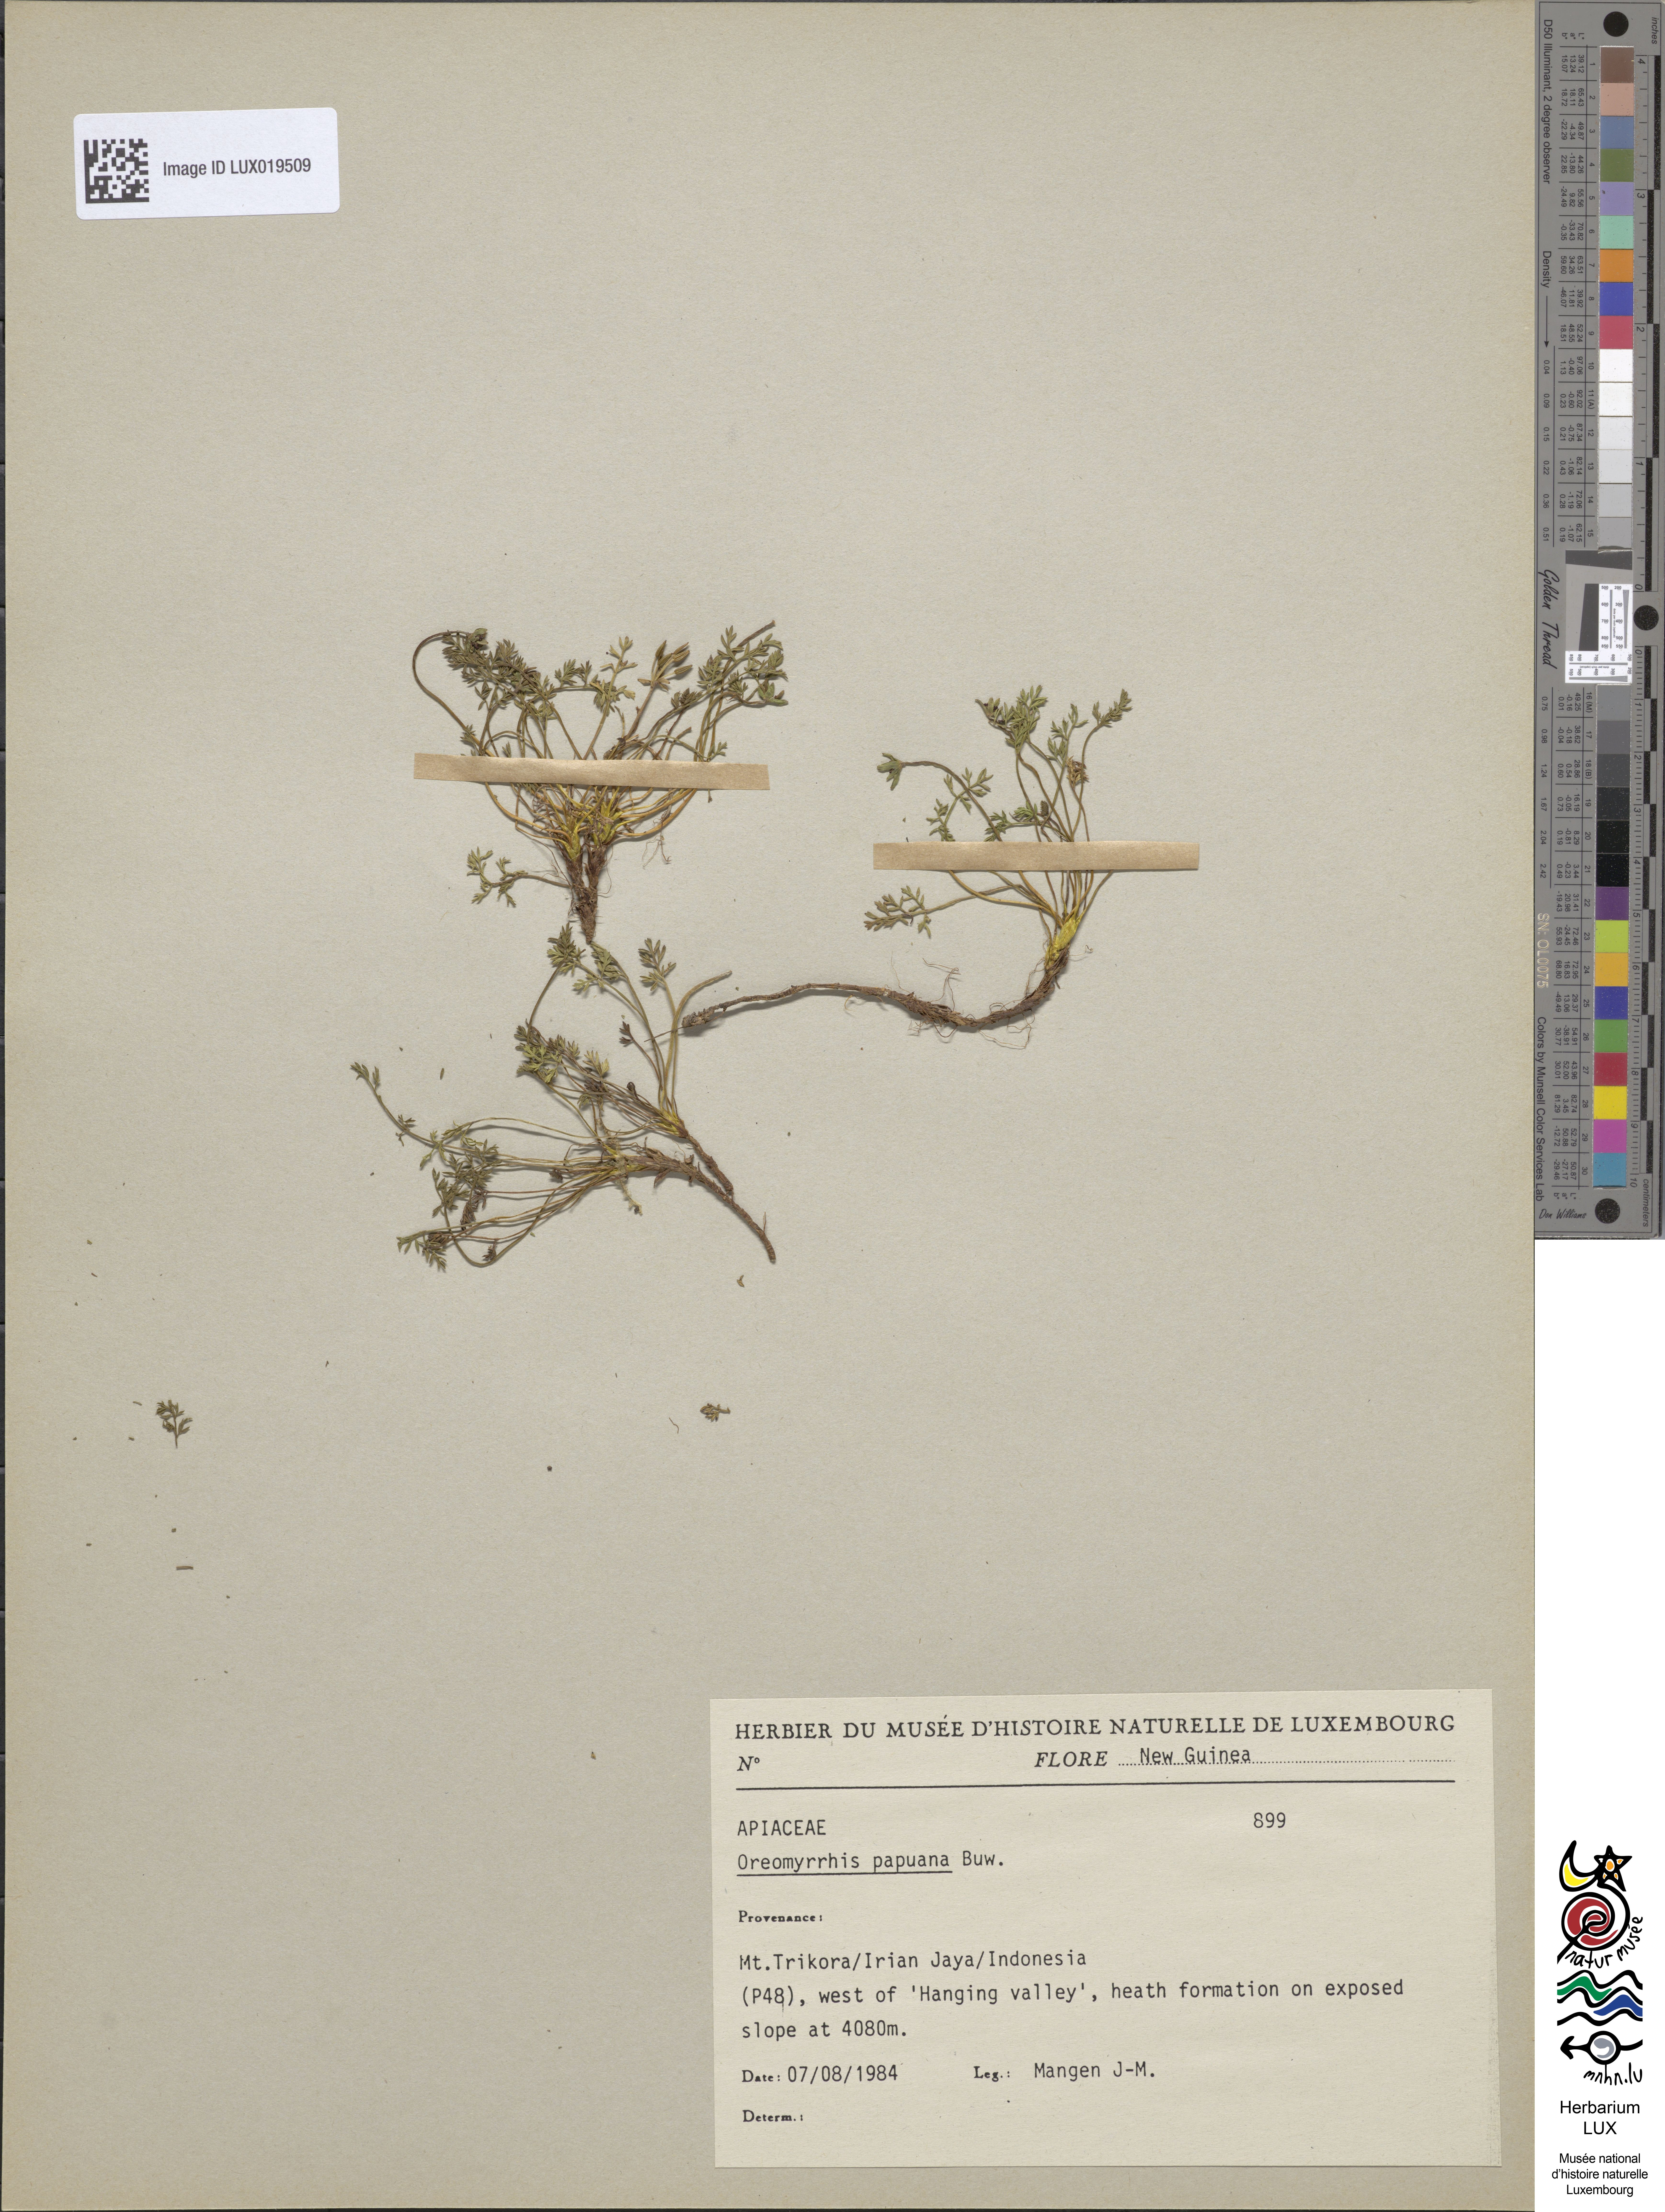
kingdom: Plantae
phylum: Tracheophyta
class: Magnoliopsida
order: Apiales
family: Apiaceae
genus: Chaerophyllum
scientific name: Chaerophyllum papuanum
